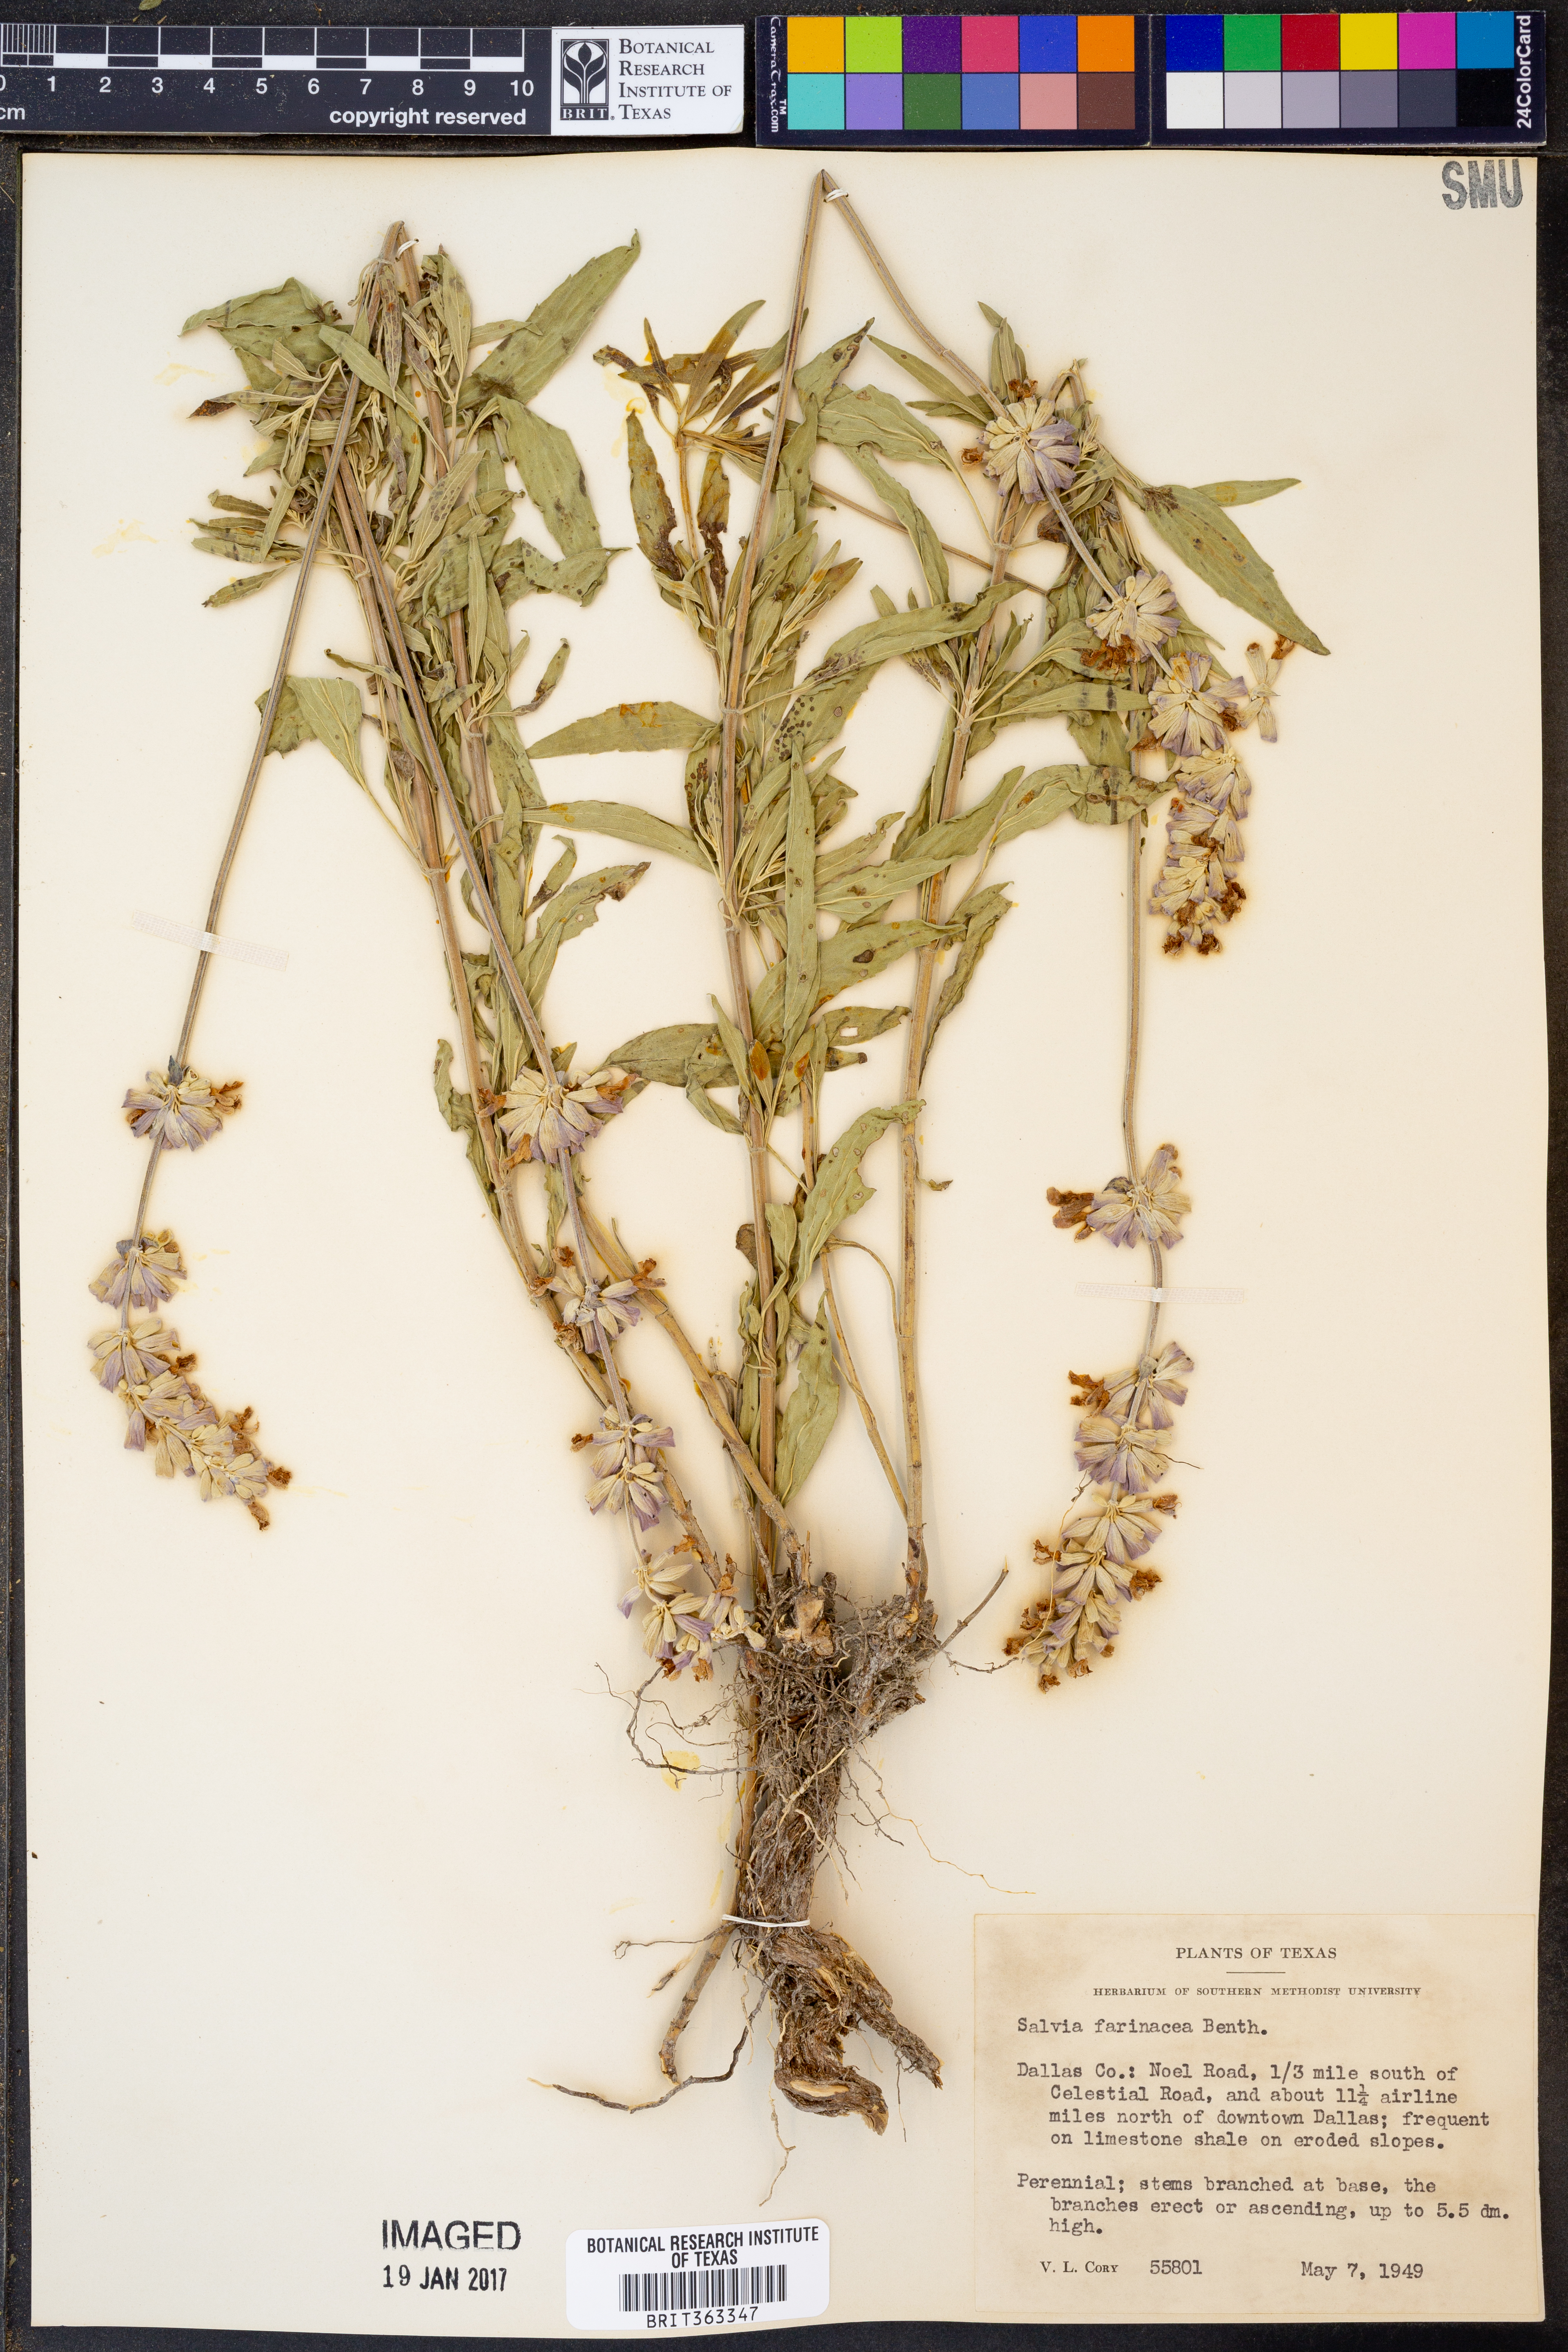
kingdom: Plantae
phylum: Tracheophyta
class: Magnoliopsida
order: Lamiales
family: Lamiaceae
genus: Salvia
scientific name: Salvia farinacea
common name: Mealy sage
